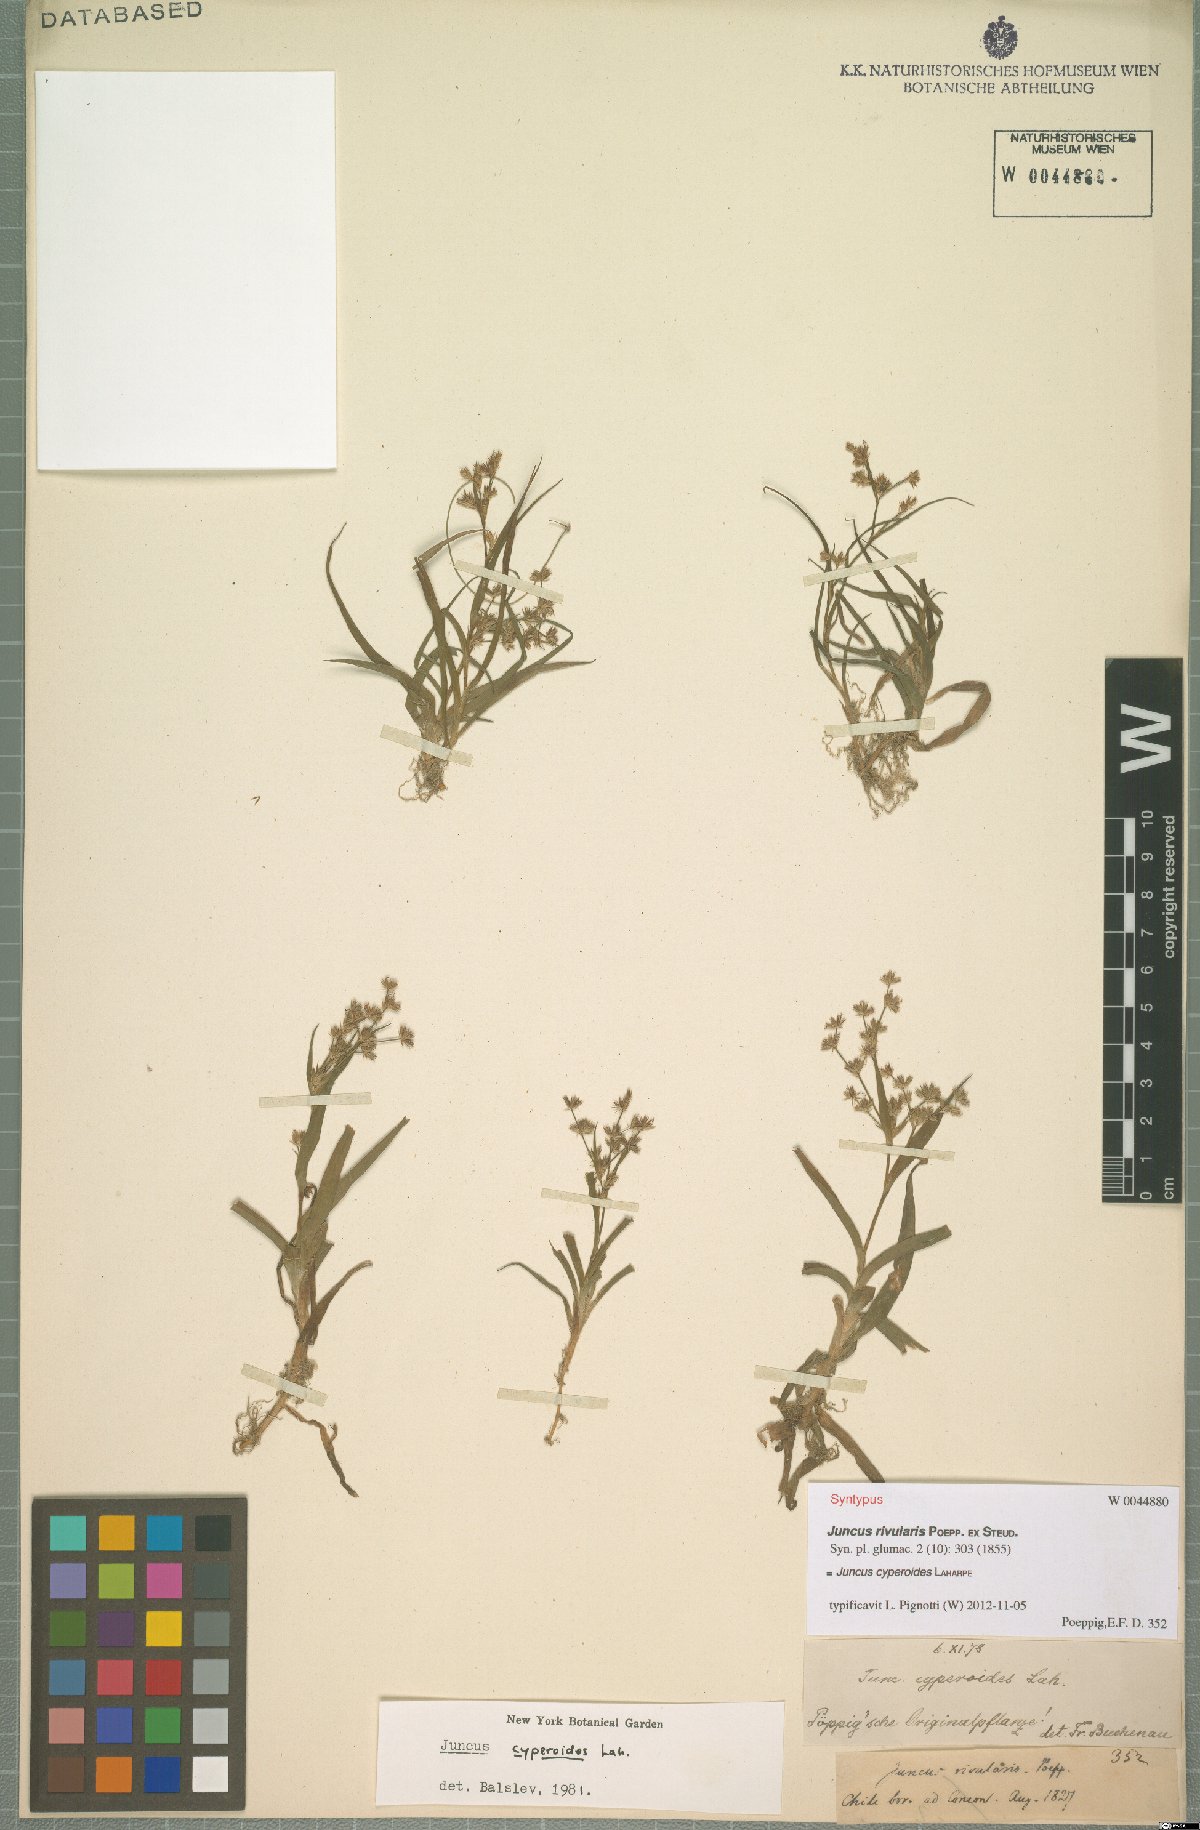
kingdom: Plantae
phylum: Tracheophyta
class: Liliopsida
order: Poales
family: Juncaceae
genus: Juncus
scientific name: Juncus cyperoides
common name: Forbestown rush
